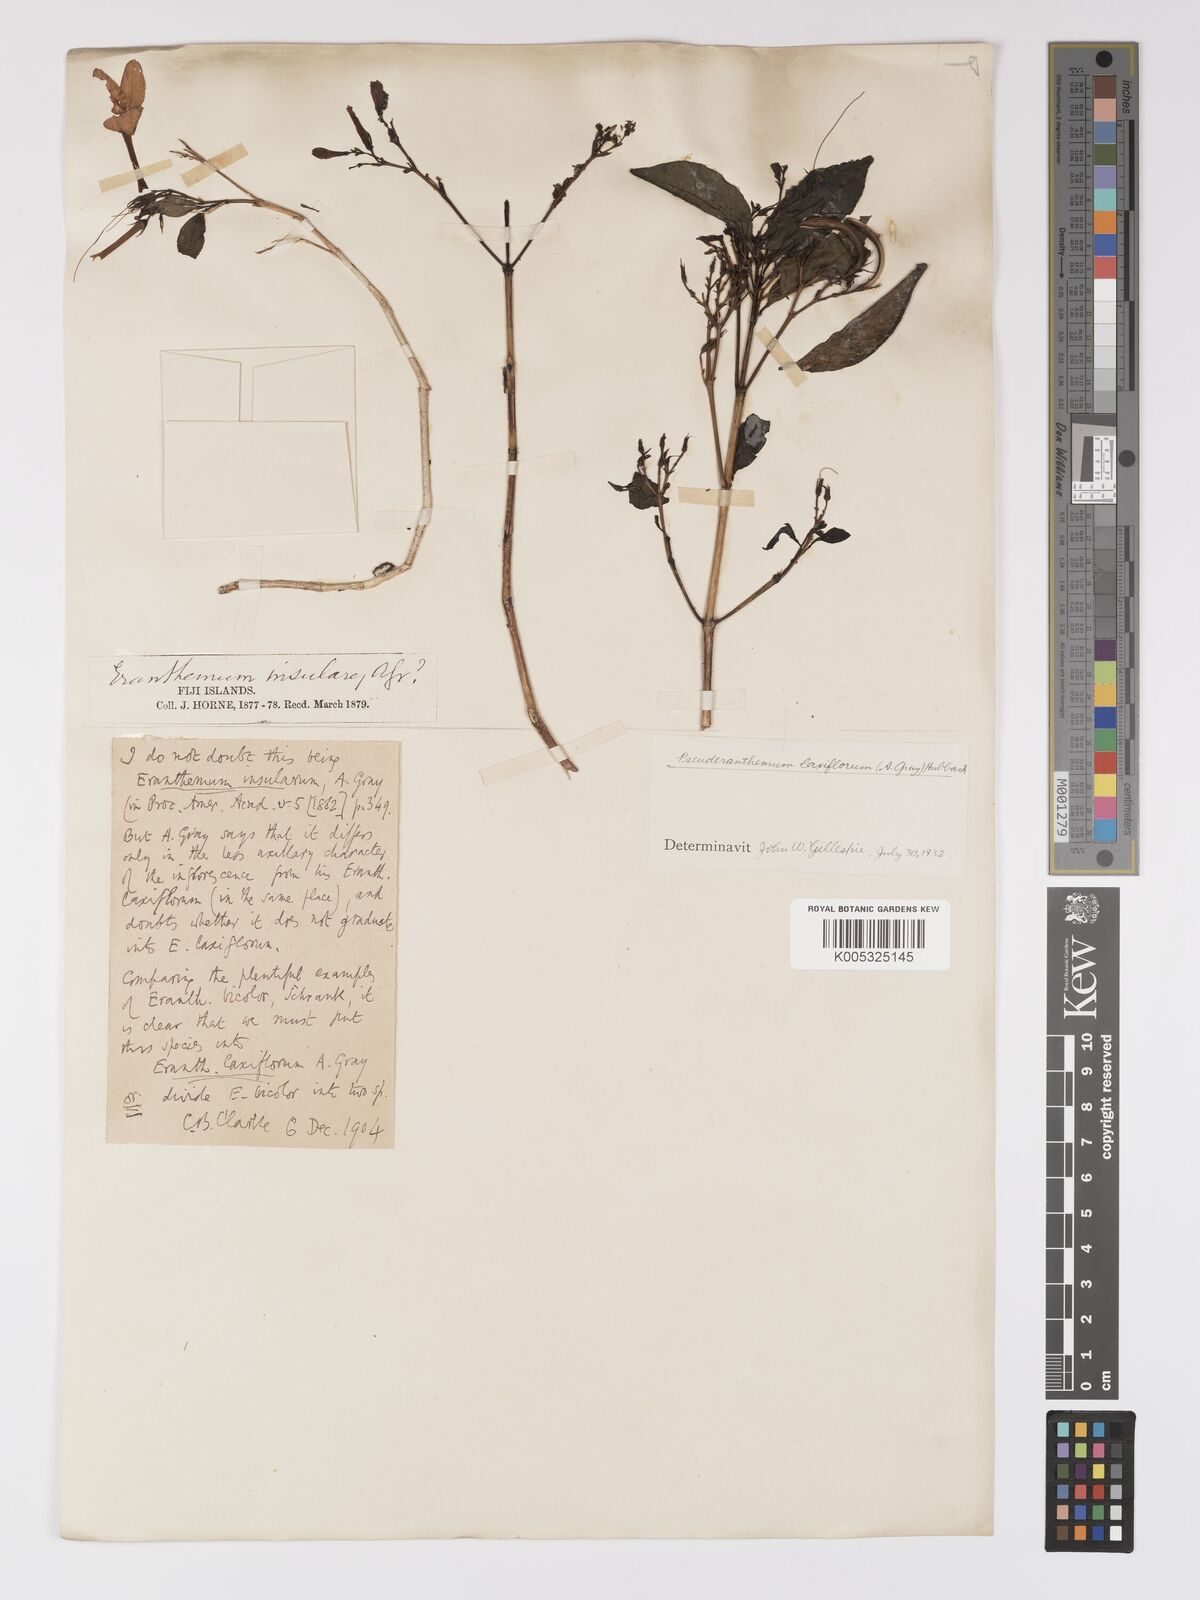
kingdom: Plantae
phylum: Tracheophyta
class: Magnoliopsida
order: Lamiales
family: Acanthaceae
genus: Pseuderanthemum
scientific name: Pseuderanthemum laxiflorum
